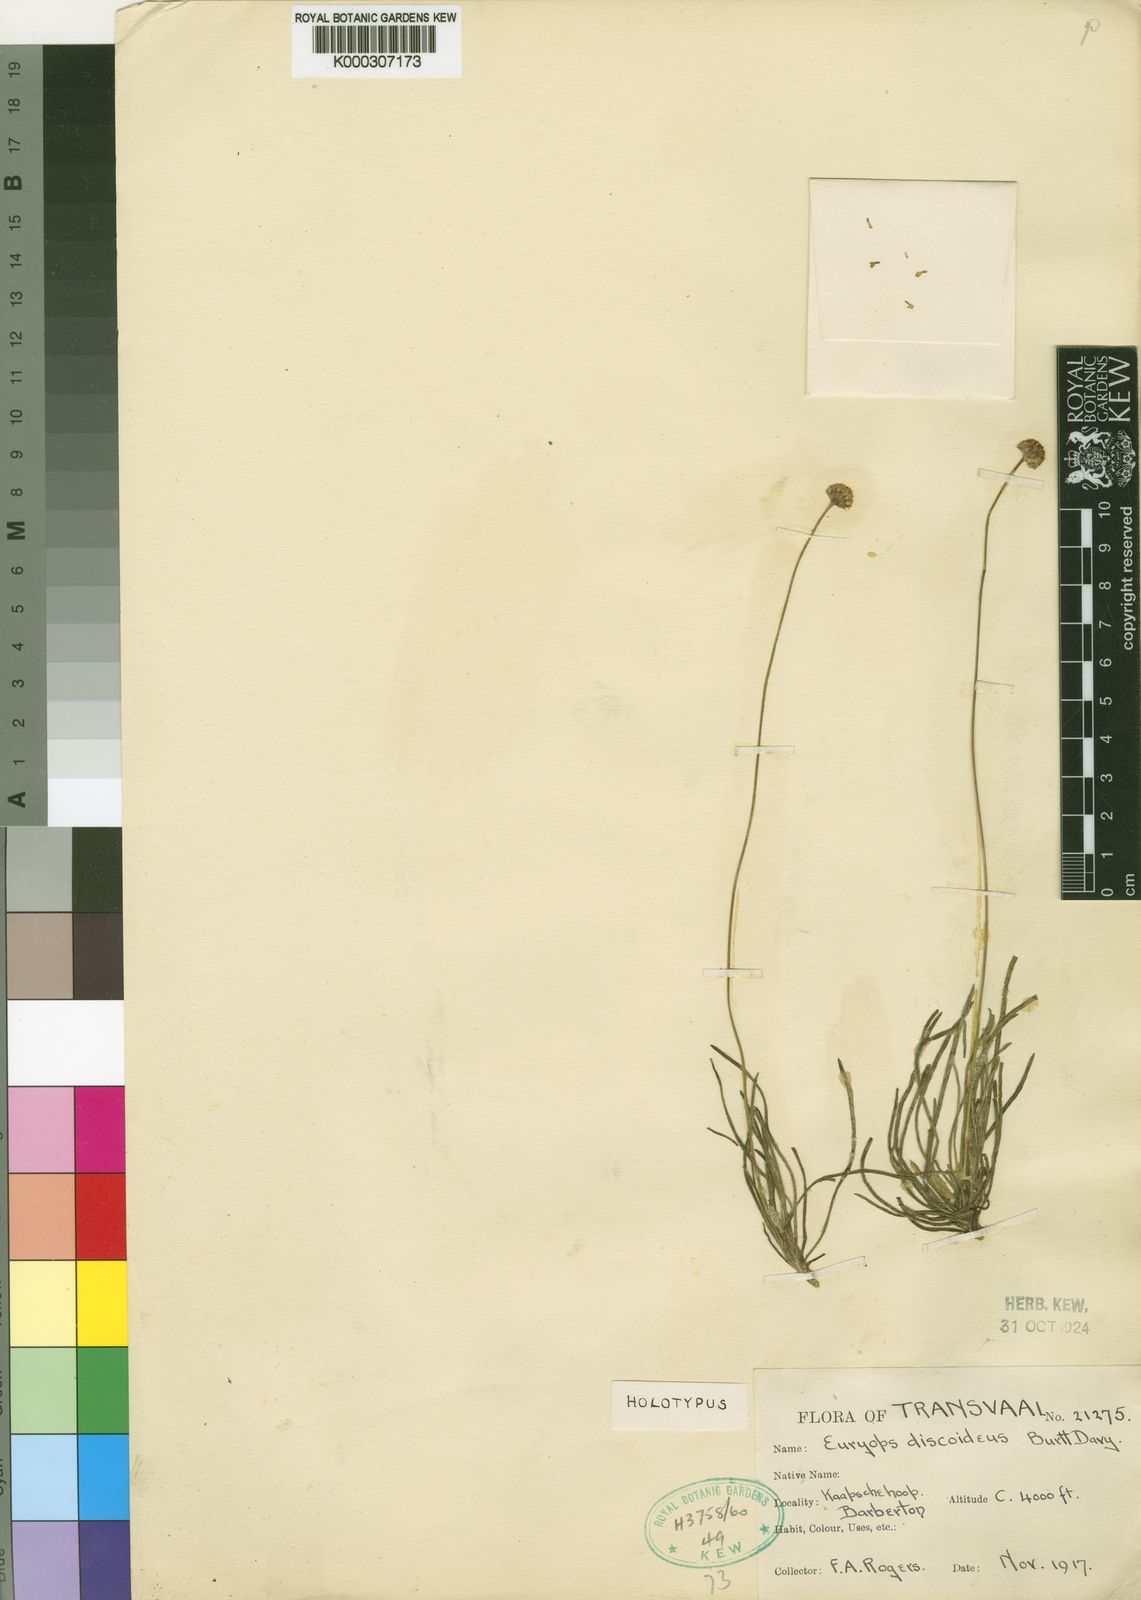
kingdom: Plantae
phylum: Tracheophyta
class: Magnoliopsida
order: Asterales
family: Asteraceae
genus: Euryops
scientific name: Euryops discoideus
